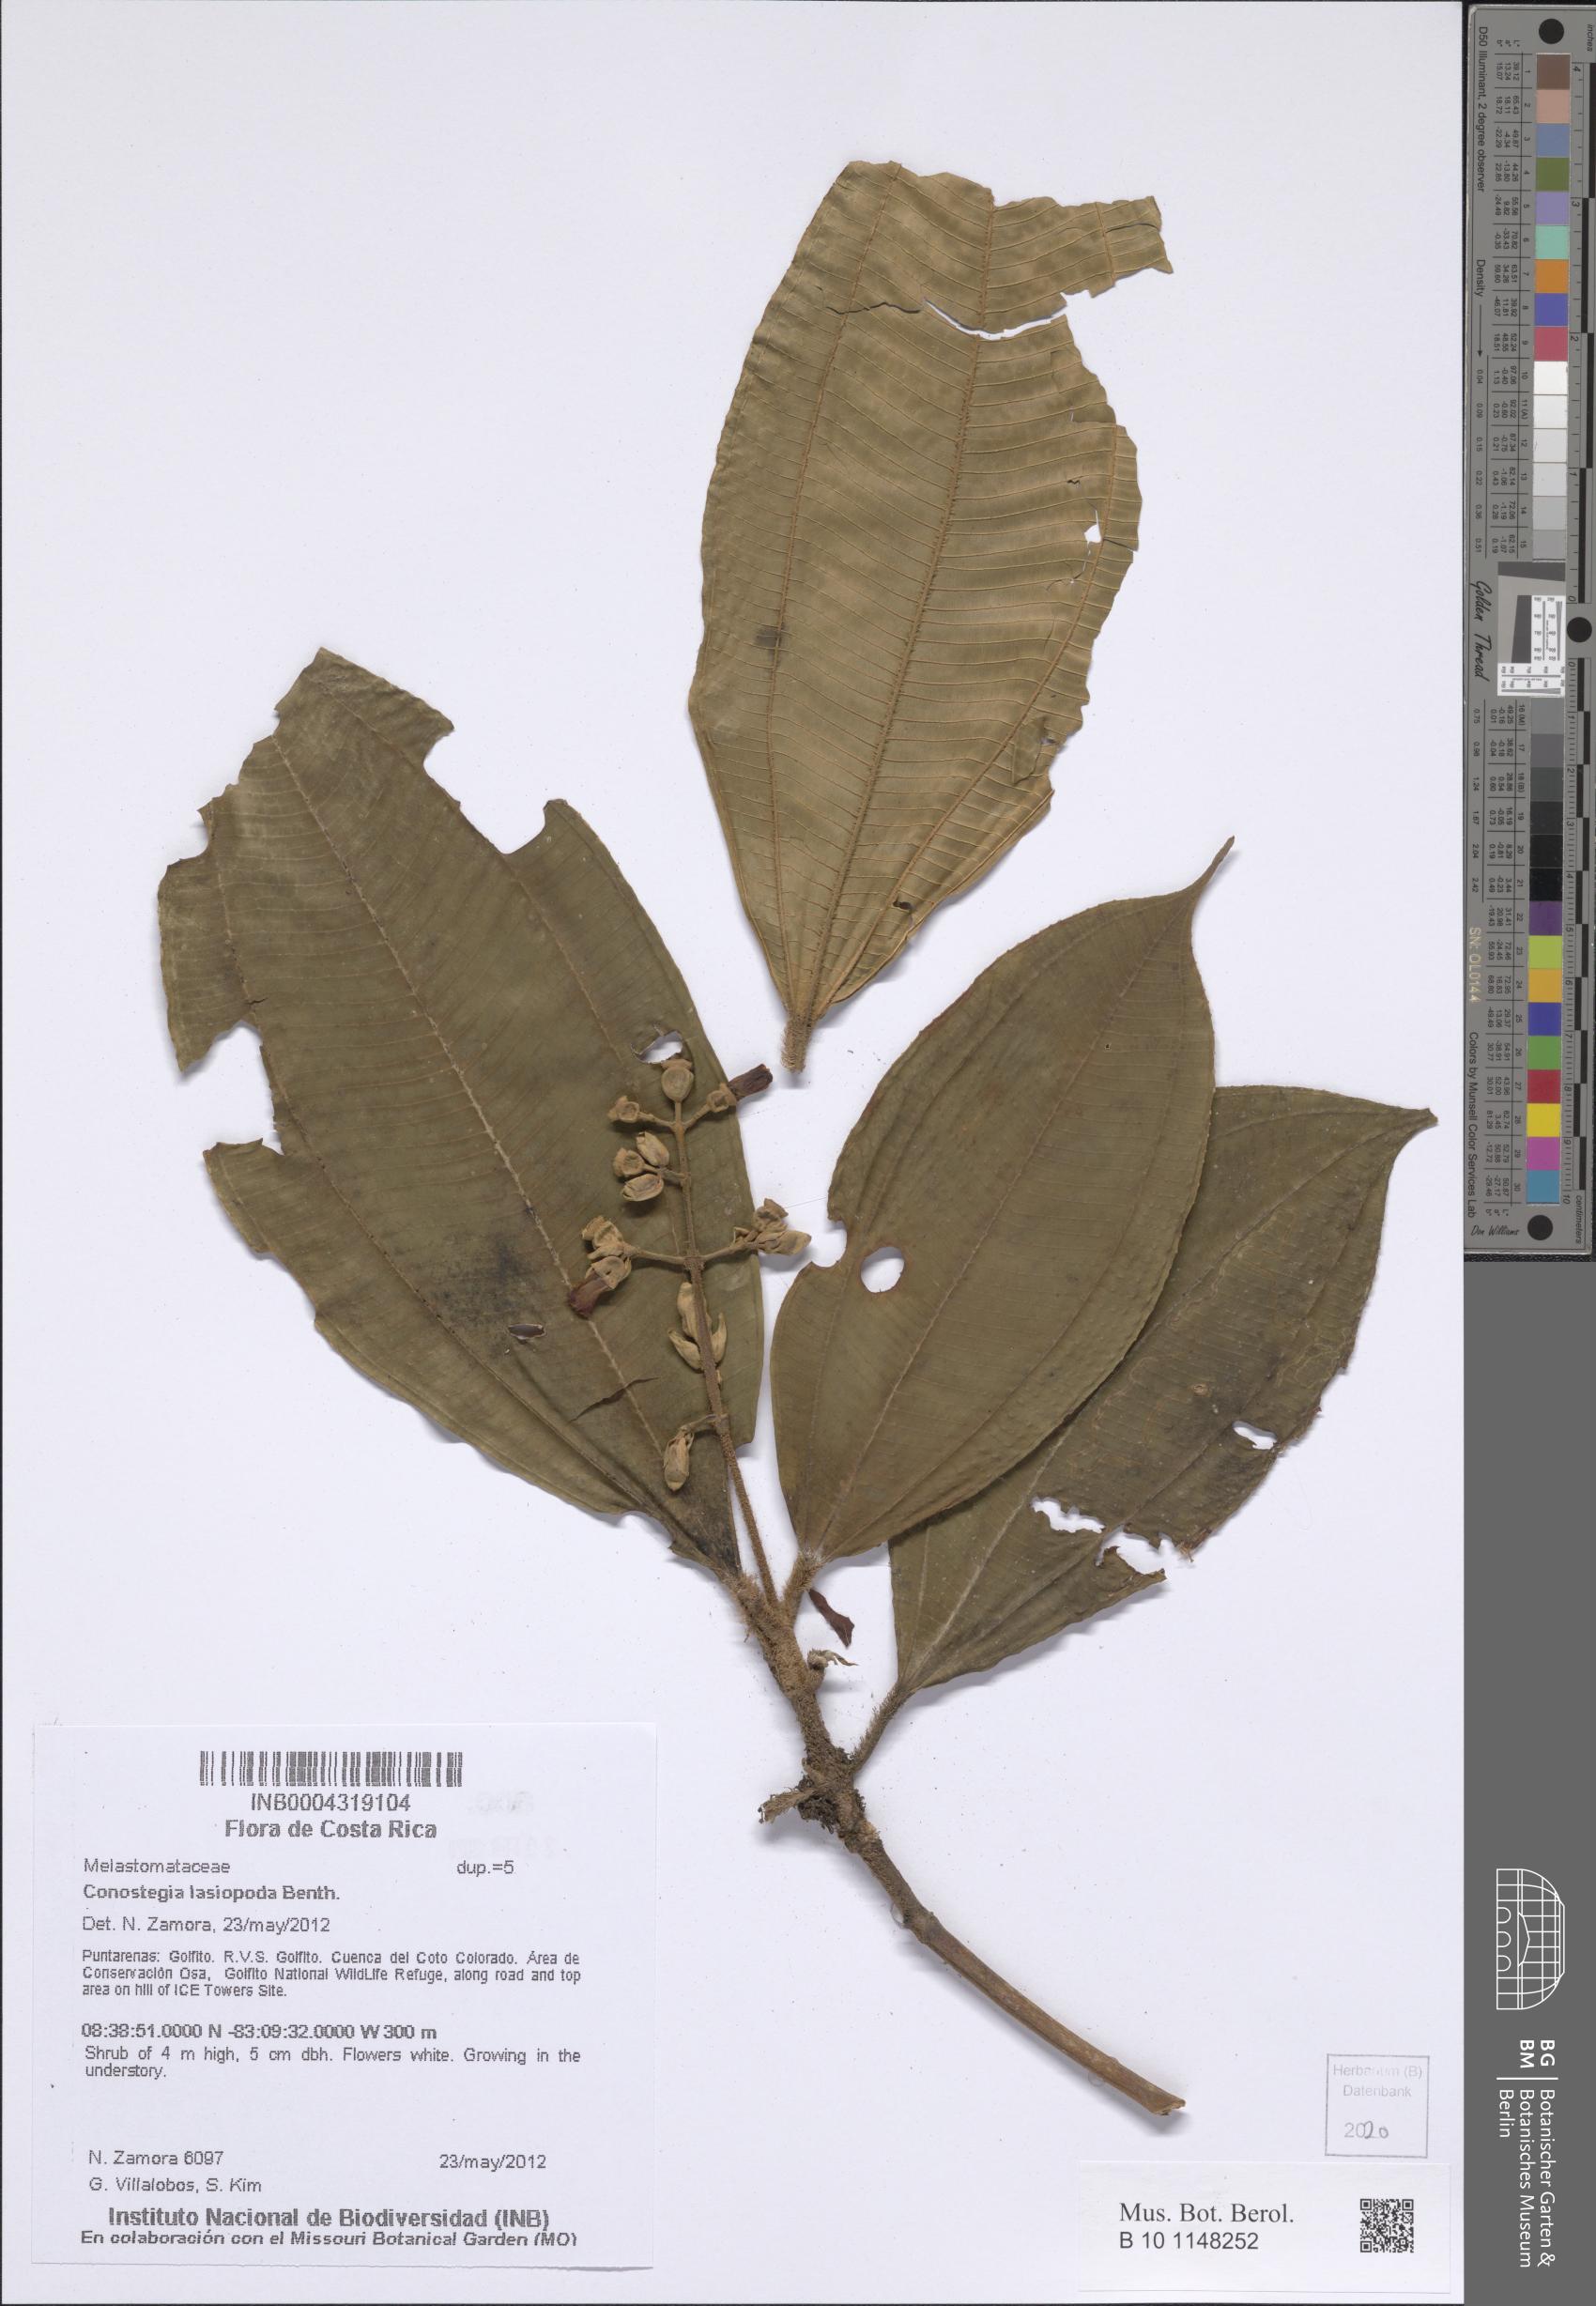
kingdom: Plantae
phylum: Tracheophyta
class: Magnoliopsida
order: Myrtales
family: Melastomataceae
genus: Miconia
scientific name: Miconia lasiopoda
